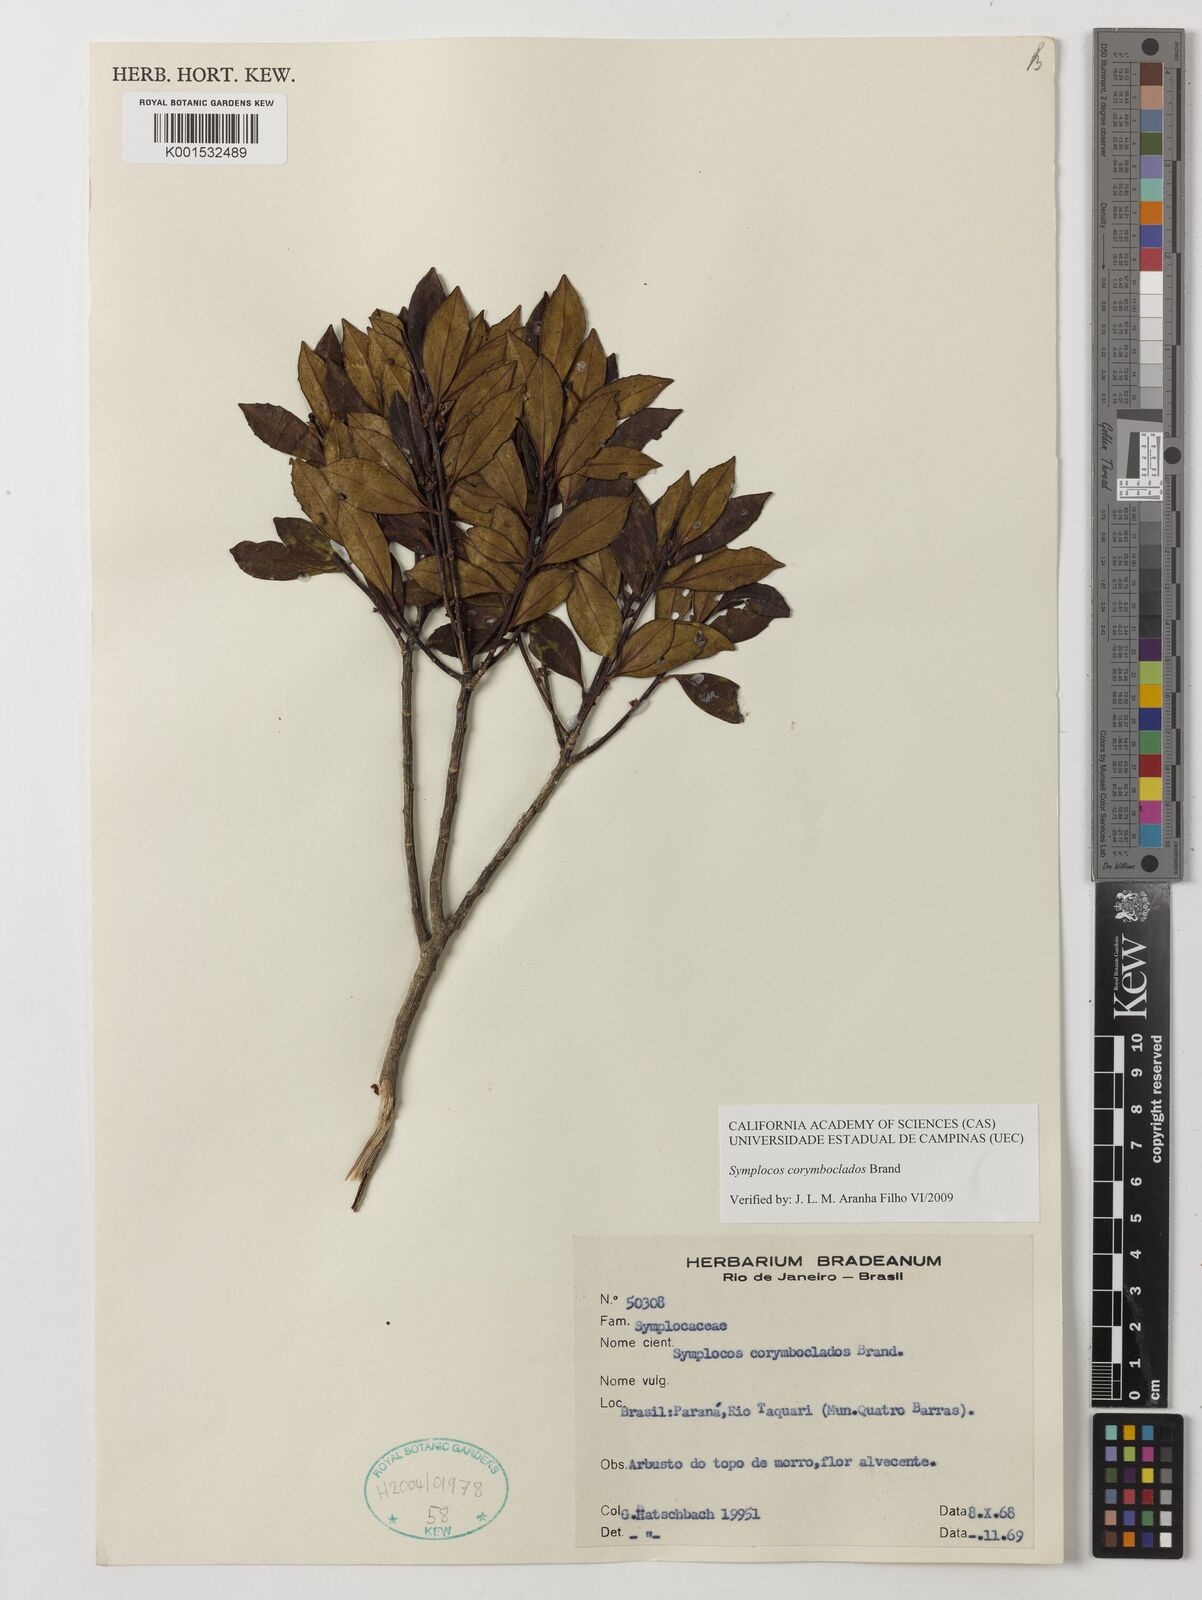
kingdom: Plantae
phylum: Tracheophyta
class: Magnoliopsida
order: Ericales
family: Symplocaceae
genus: Symplocos
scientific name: Symplocos corymboclados
